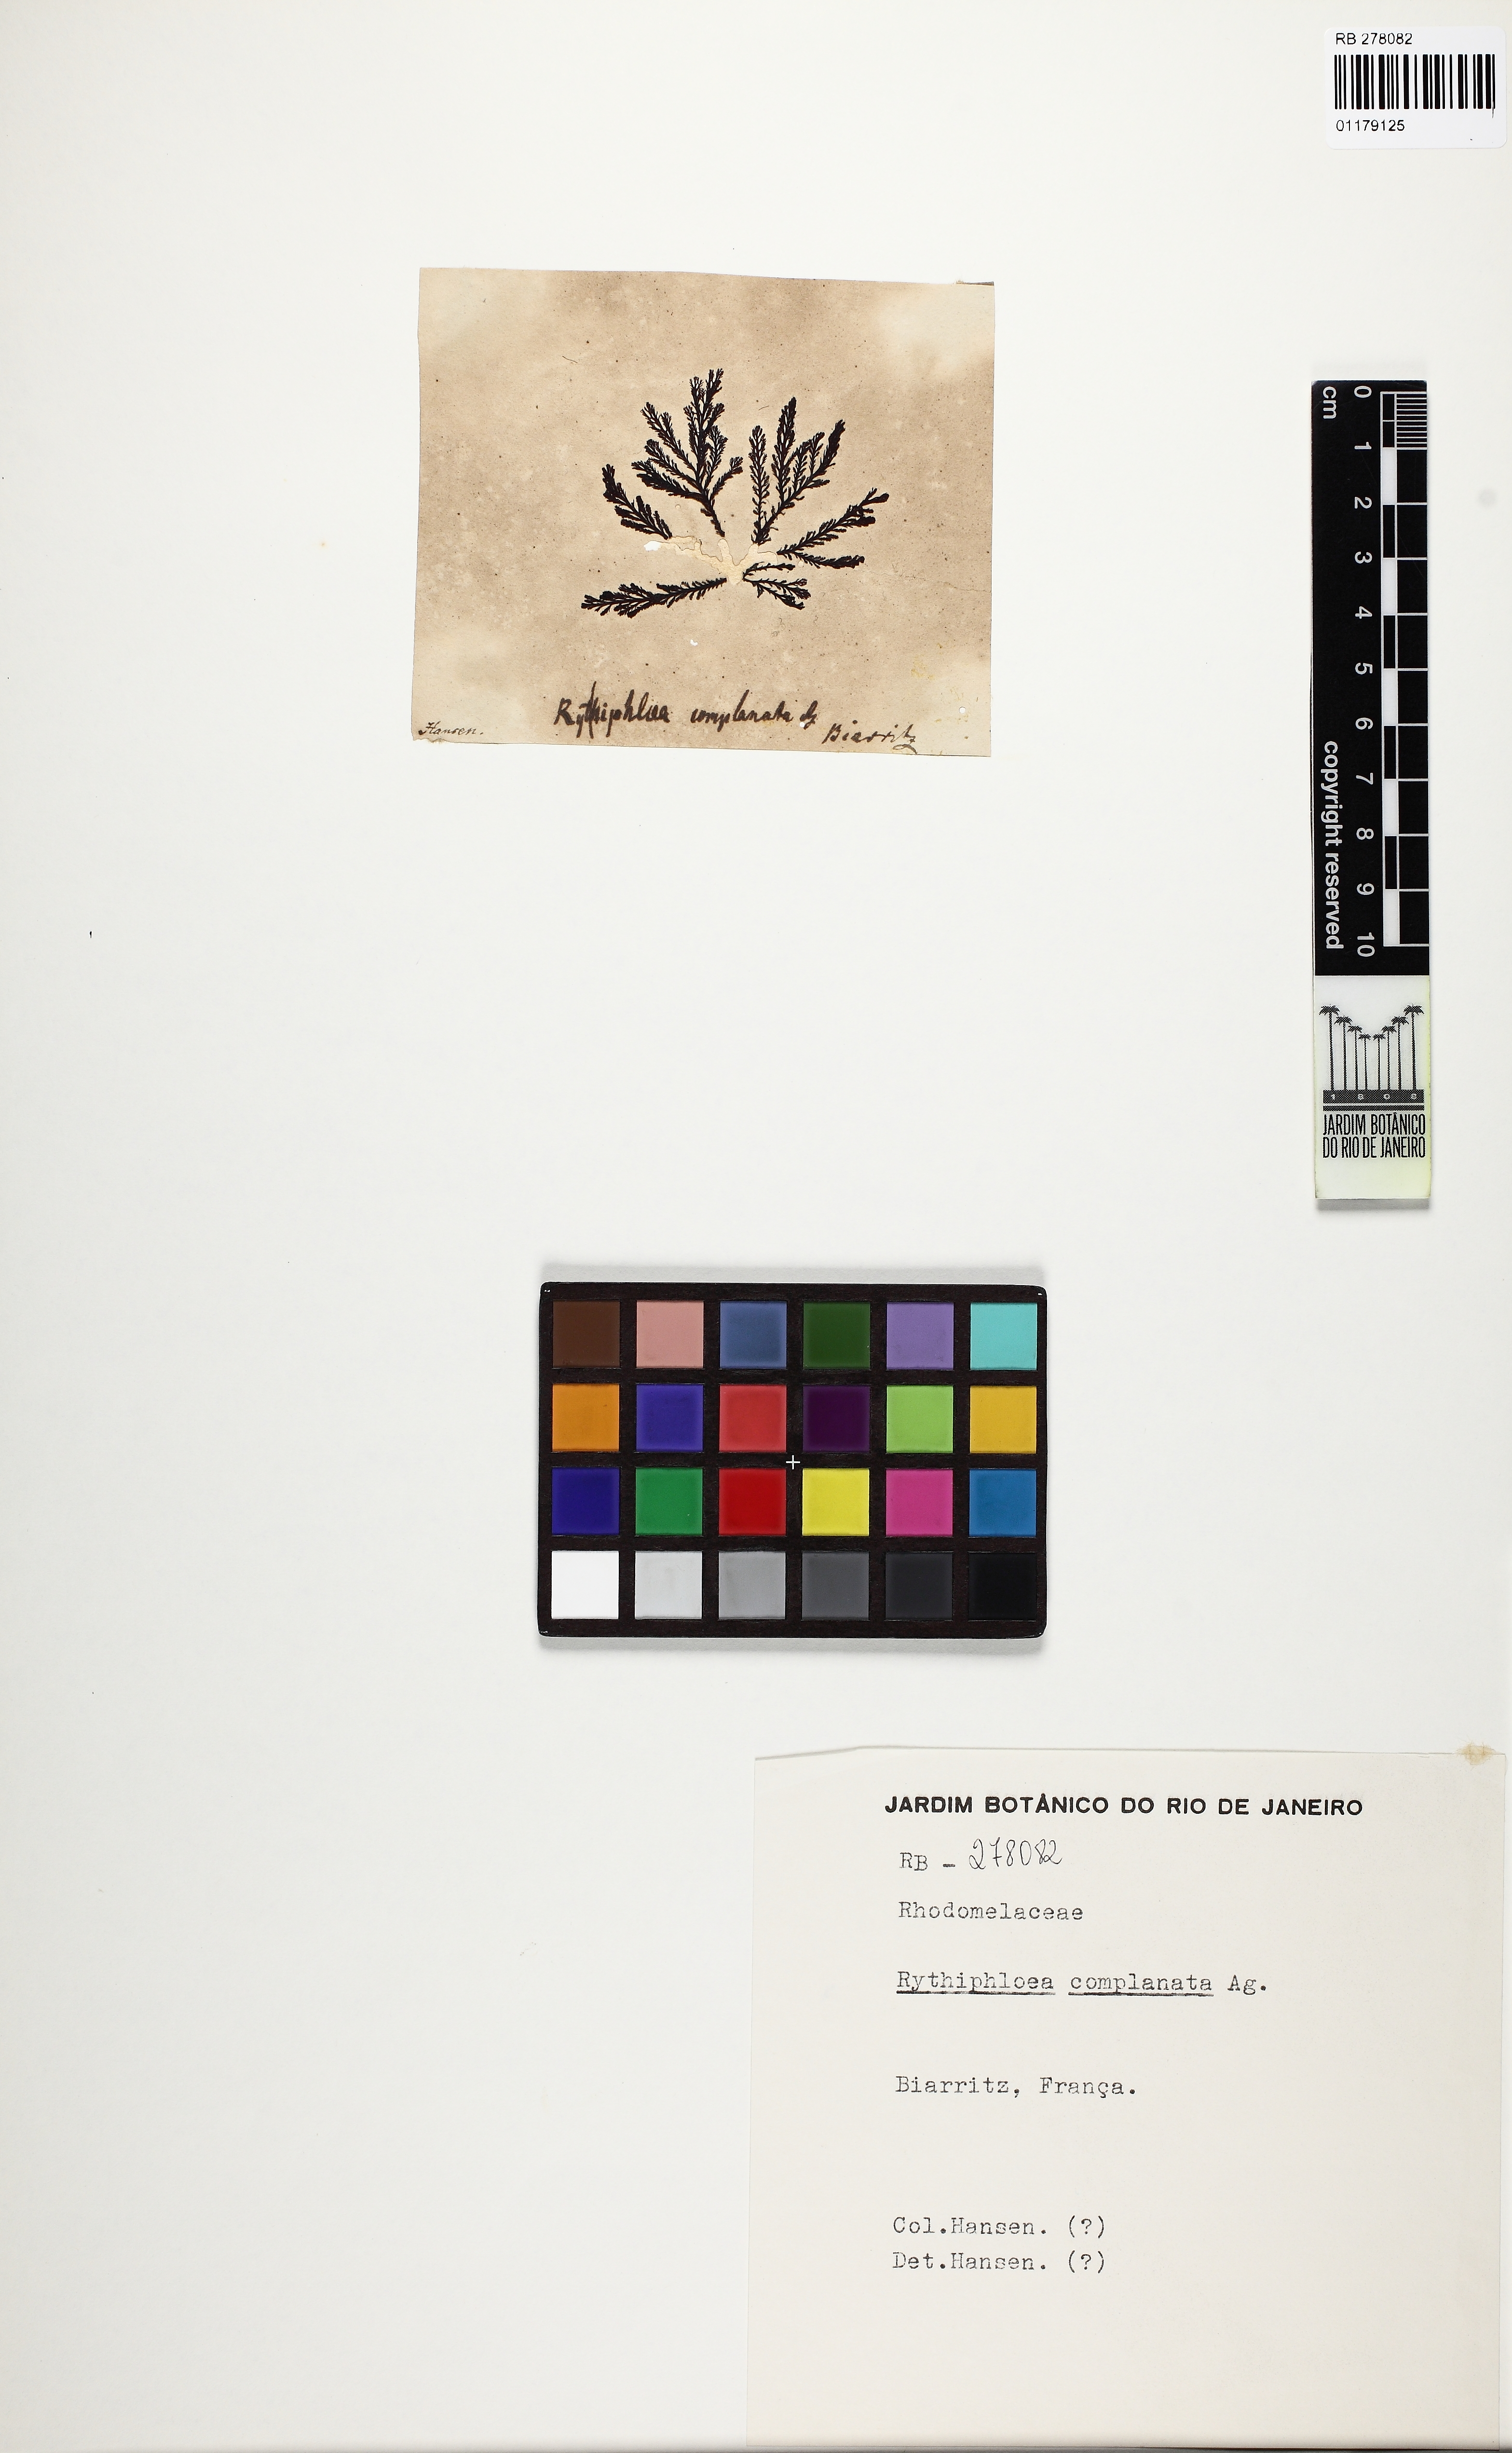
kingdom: Plantae
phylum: Rhodophyta
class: Florideophyceae
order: Ceramiales
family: Rhodomelaceae
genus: Pterosiphonia
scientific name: Pterosiphonia complanata
